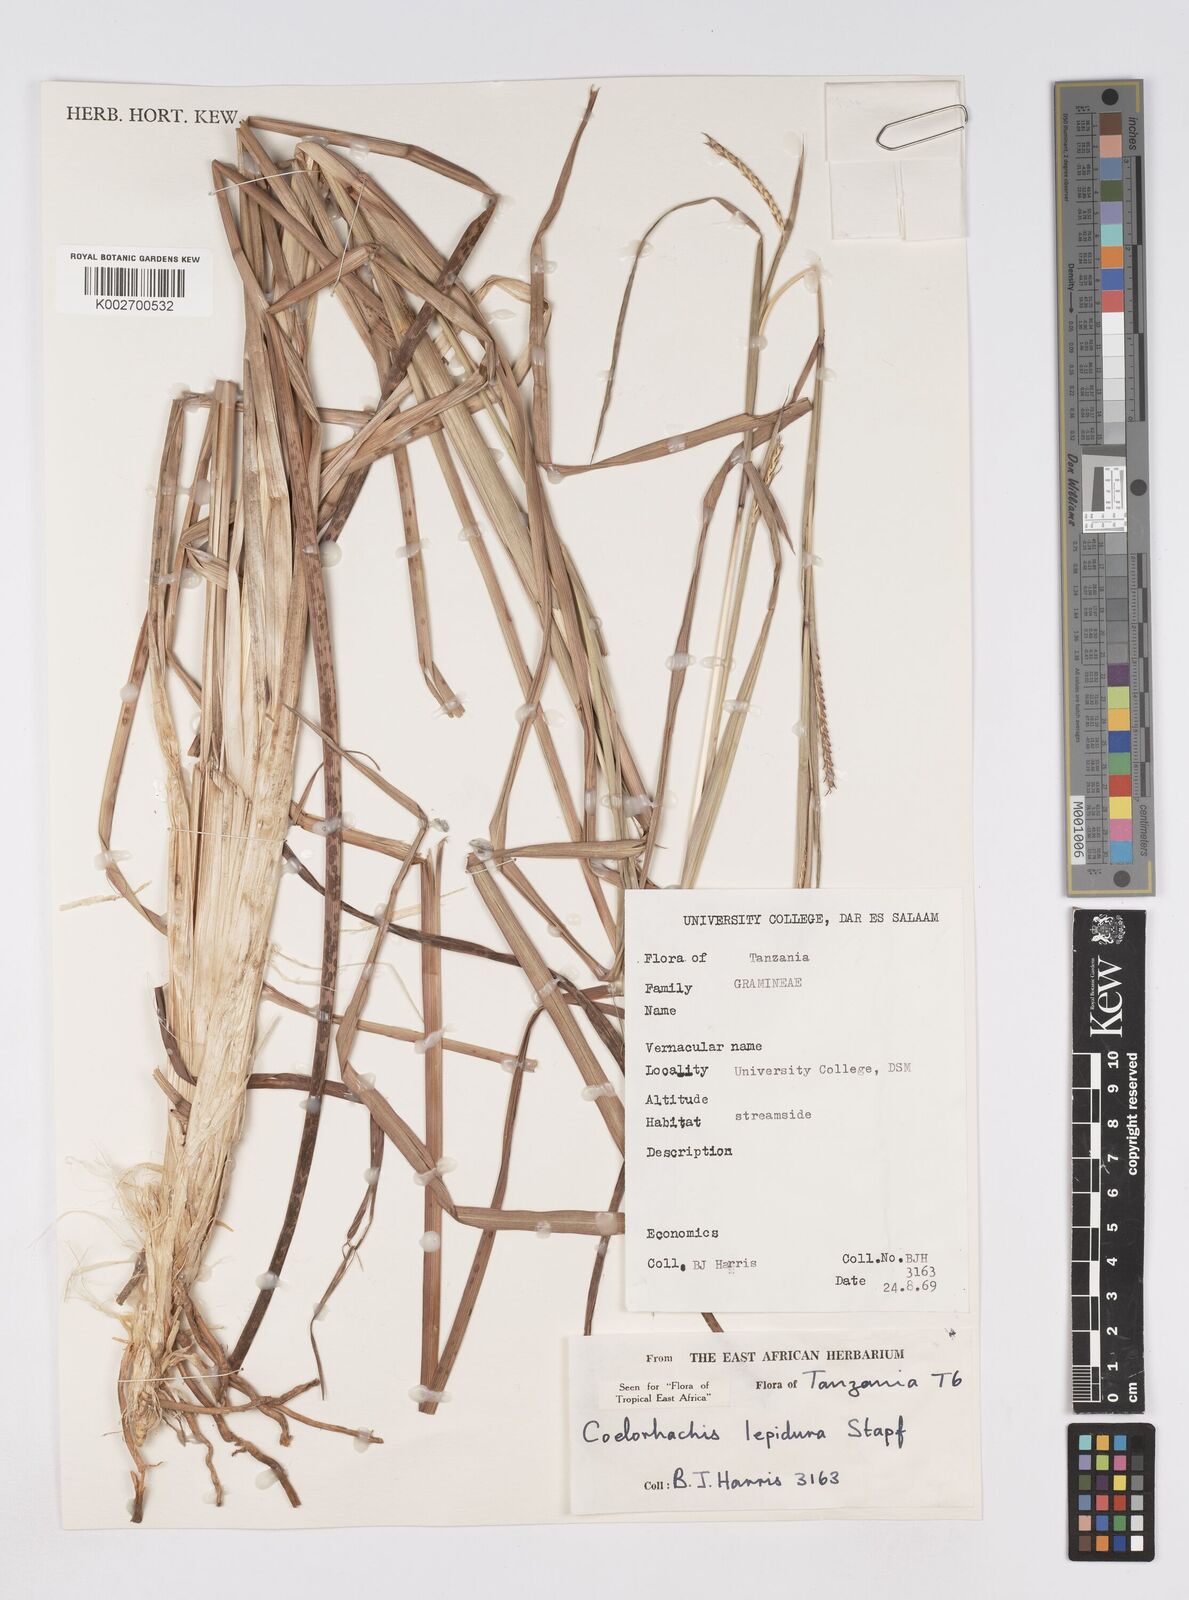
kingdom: Plantae
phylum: Tracheophyta
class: Liliopsida
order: Poales
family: Poaceae
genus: Rottboellia
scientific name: Rottboellia lepidura
